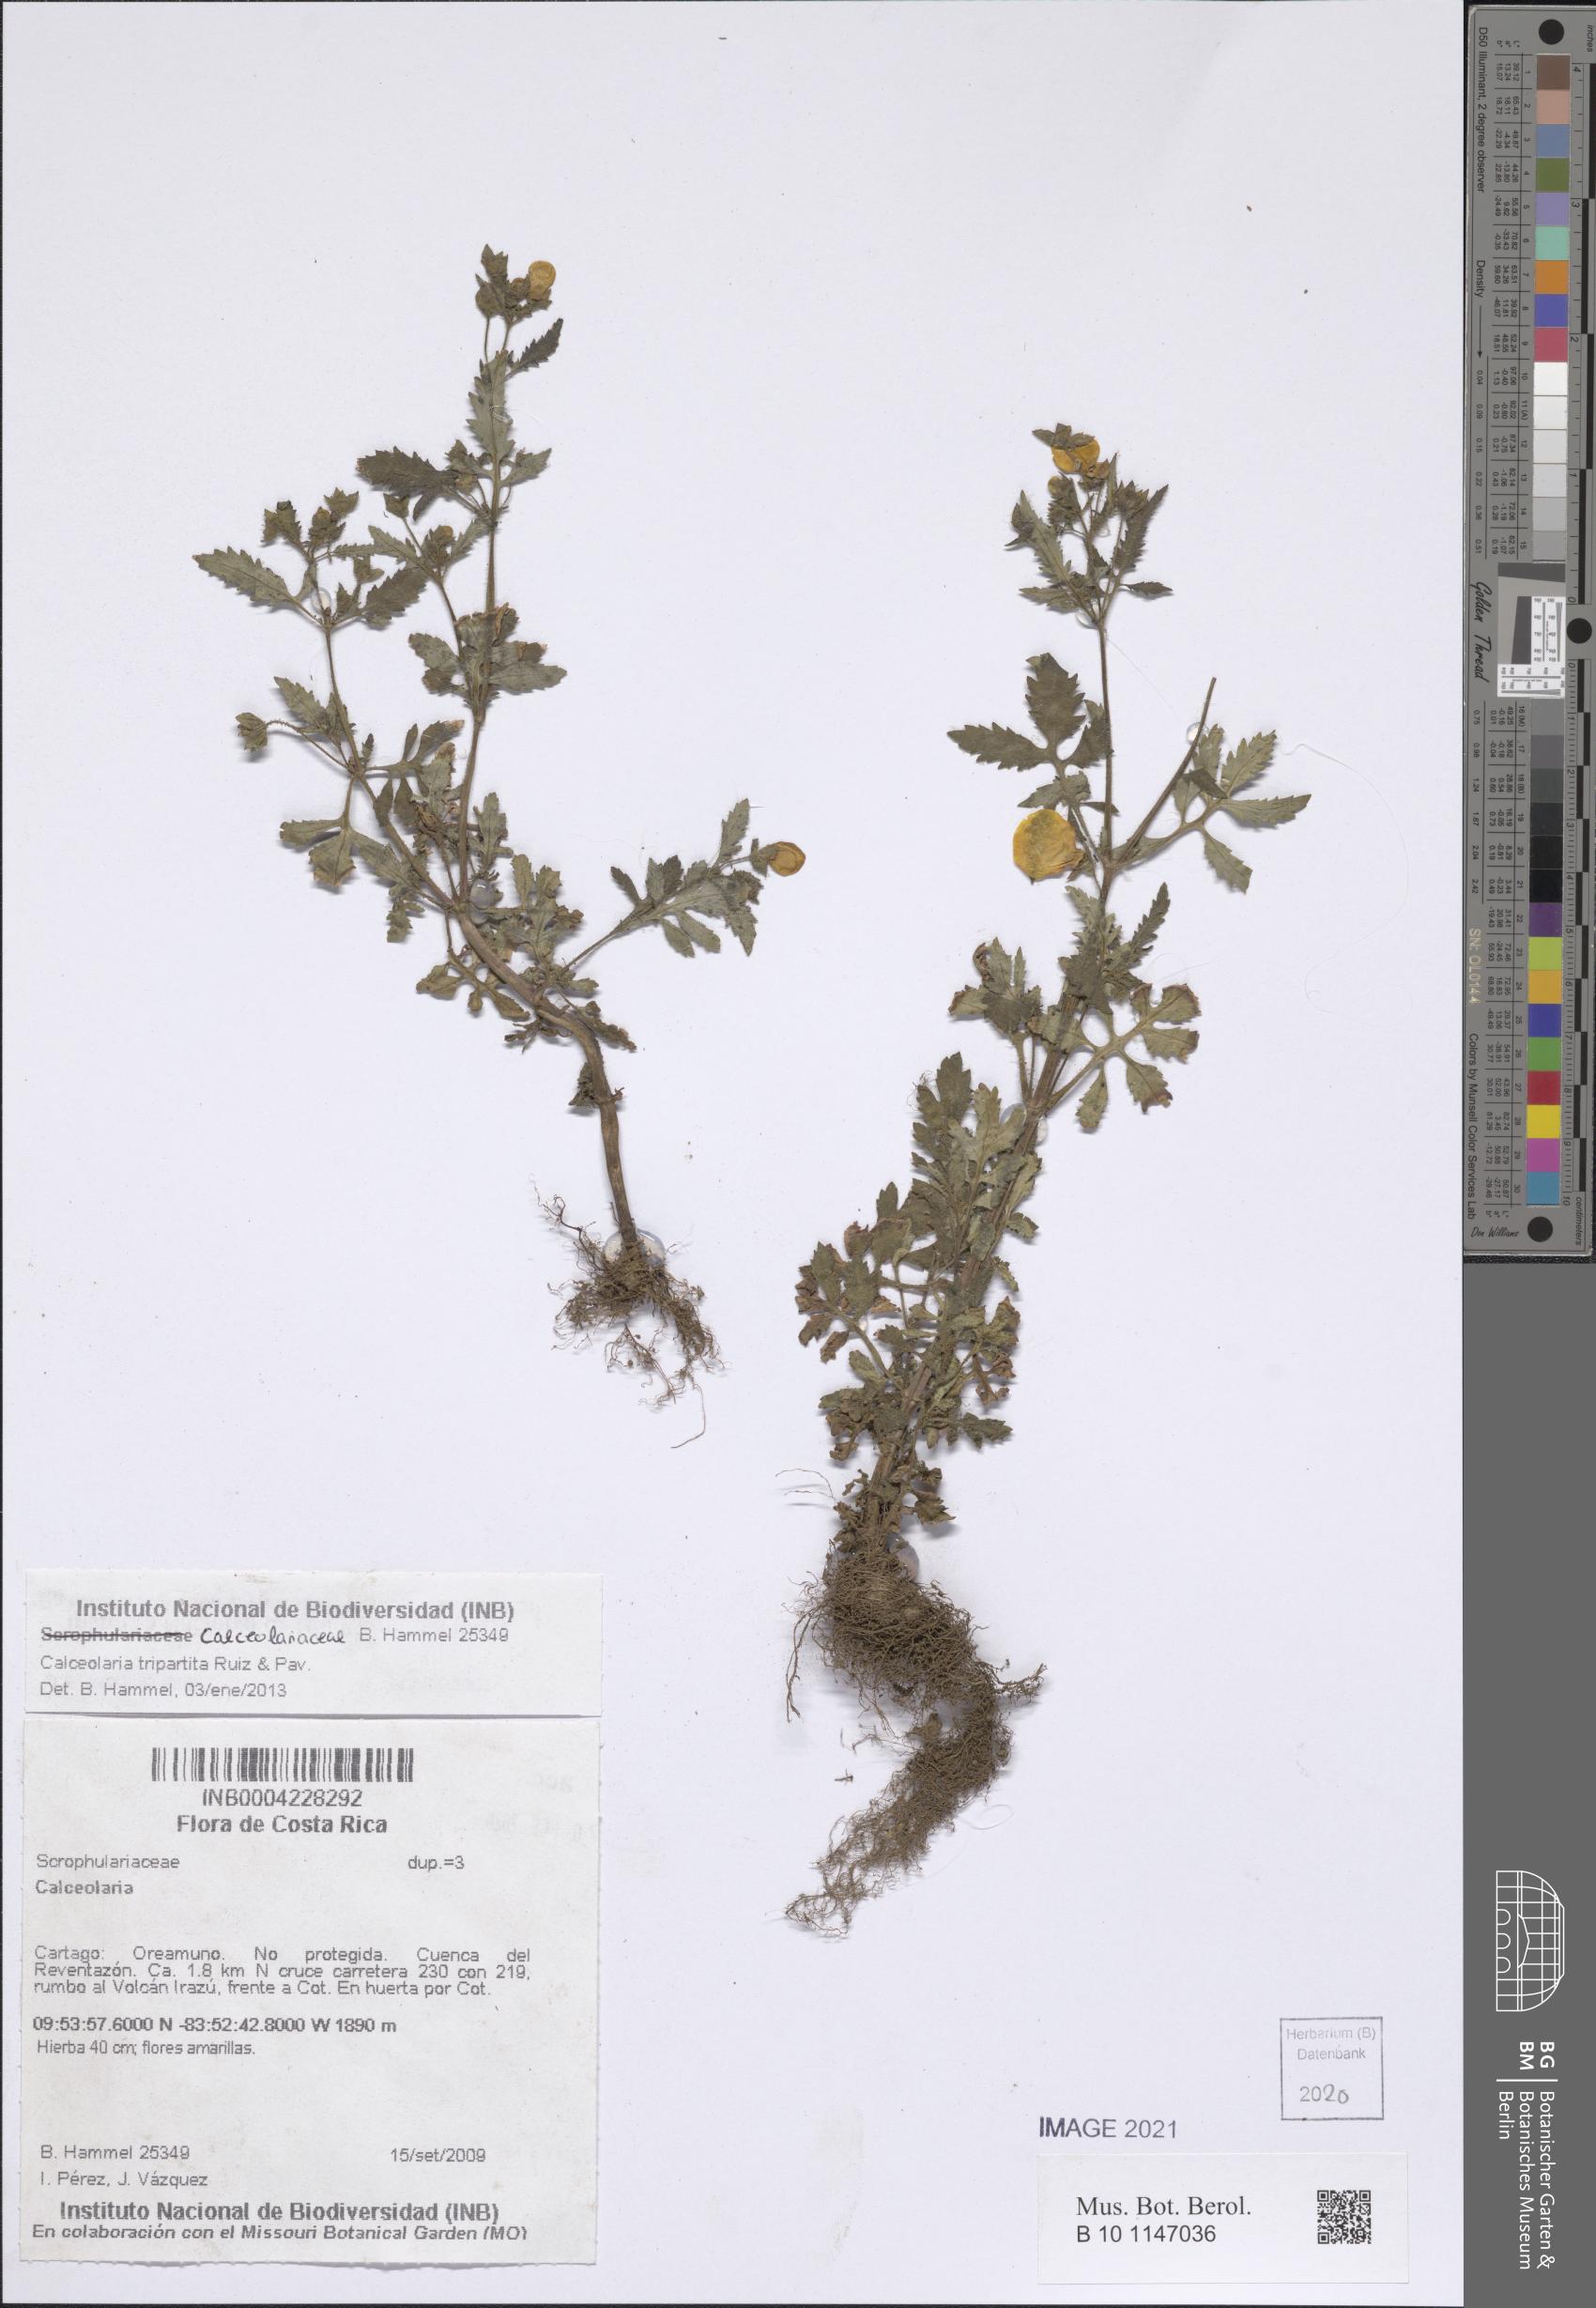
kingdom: Plantae
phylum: Tracheophyta
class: Magnoliopsida
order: Lamiales
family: Calceolariaceae
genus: Calceolaria
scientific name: Calceolaria tripartita
